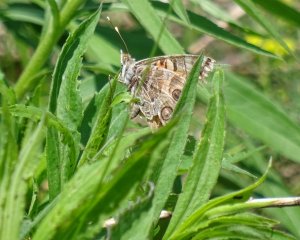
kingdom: Animalia
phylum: Arthropoda
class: Insecta
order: Lepidoptera
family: Nymphalidae
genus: Vanessa
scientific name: Vanessa virginiensis
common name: American Lady
